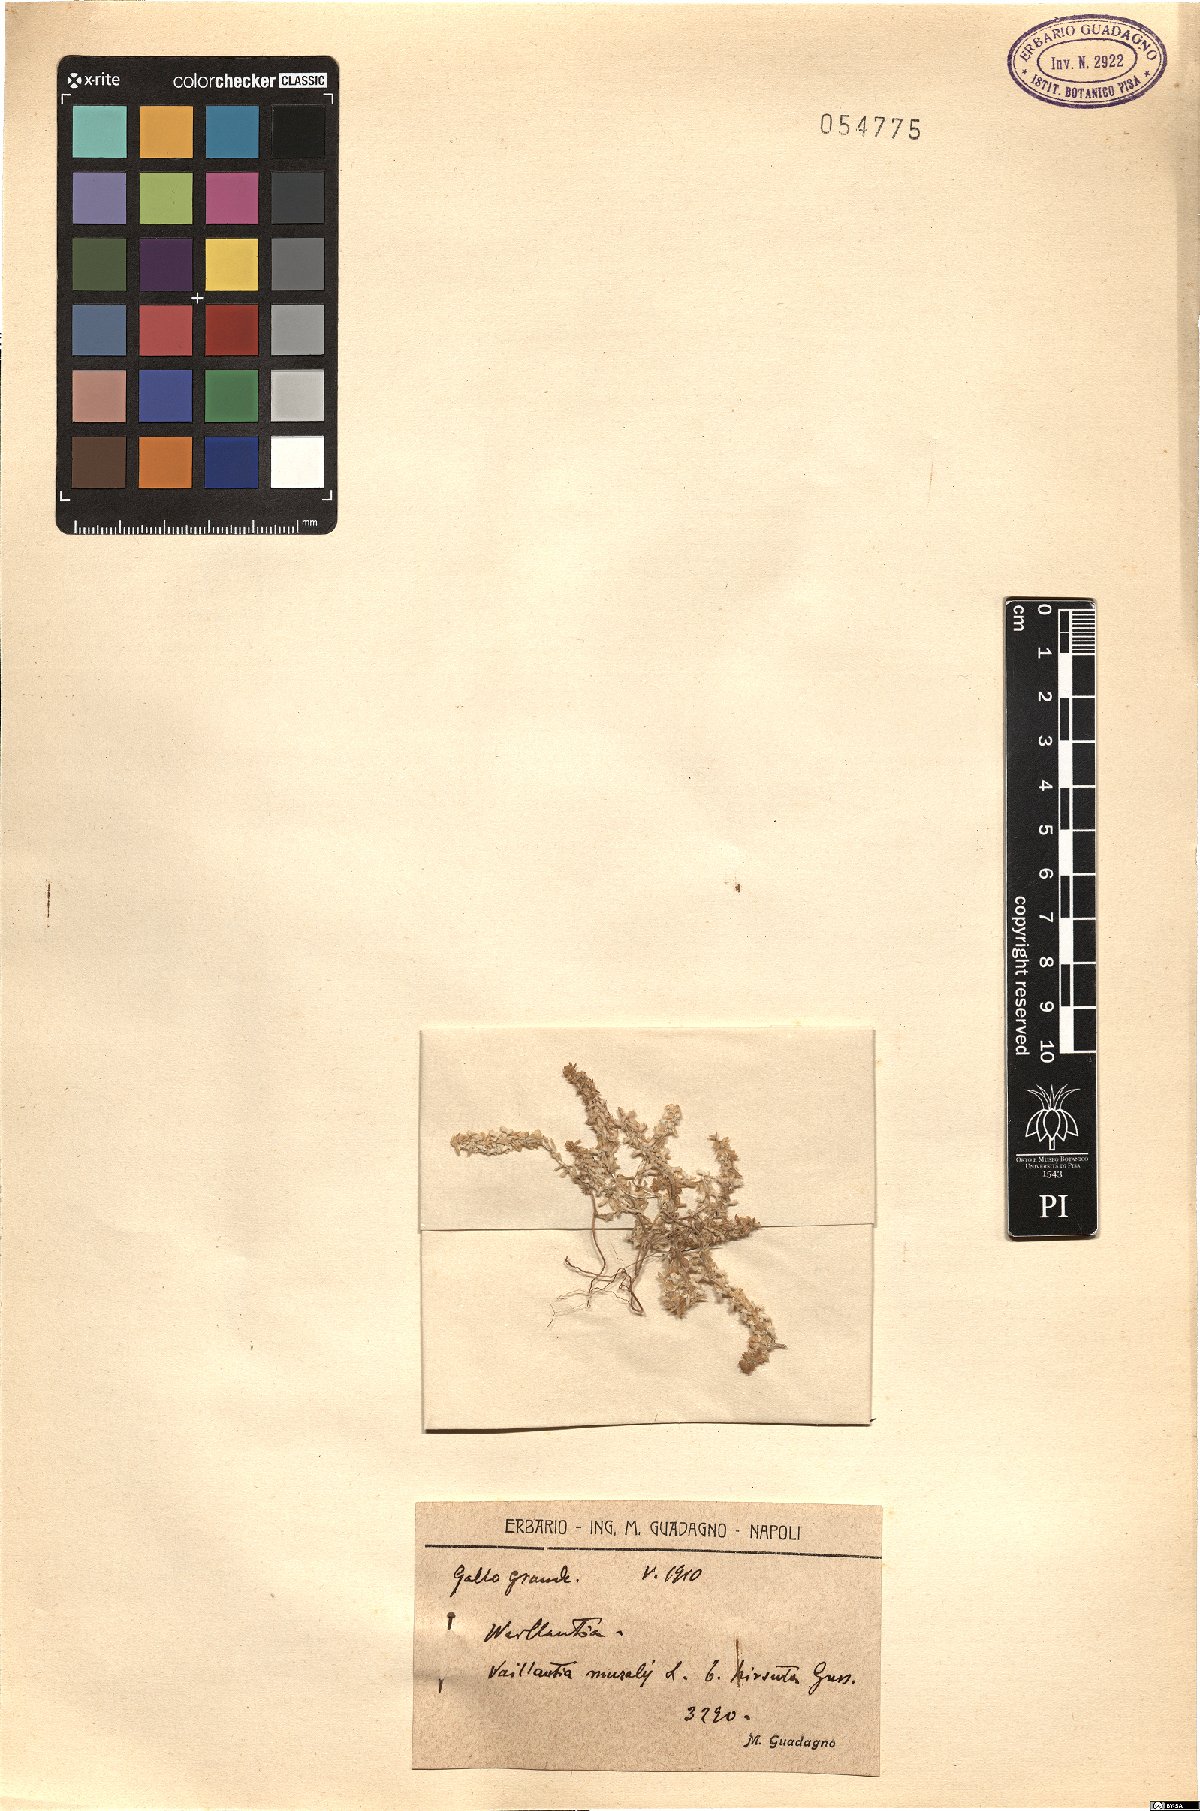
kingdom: Plantae
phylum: Tracheophyta
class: Magnoliopsida
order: Gentianales
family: Rubiaceae
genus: Valantia
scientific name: Valantia muralis
